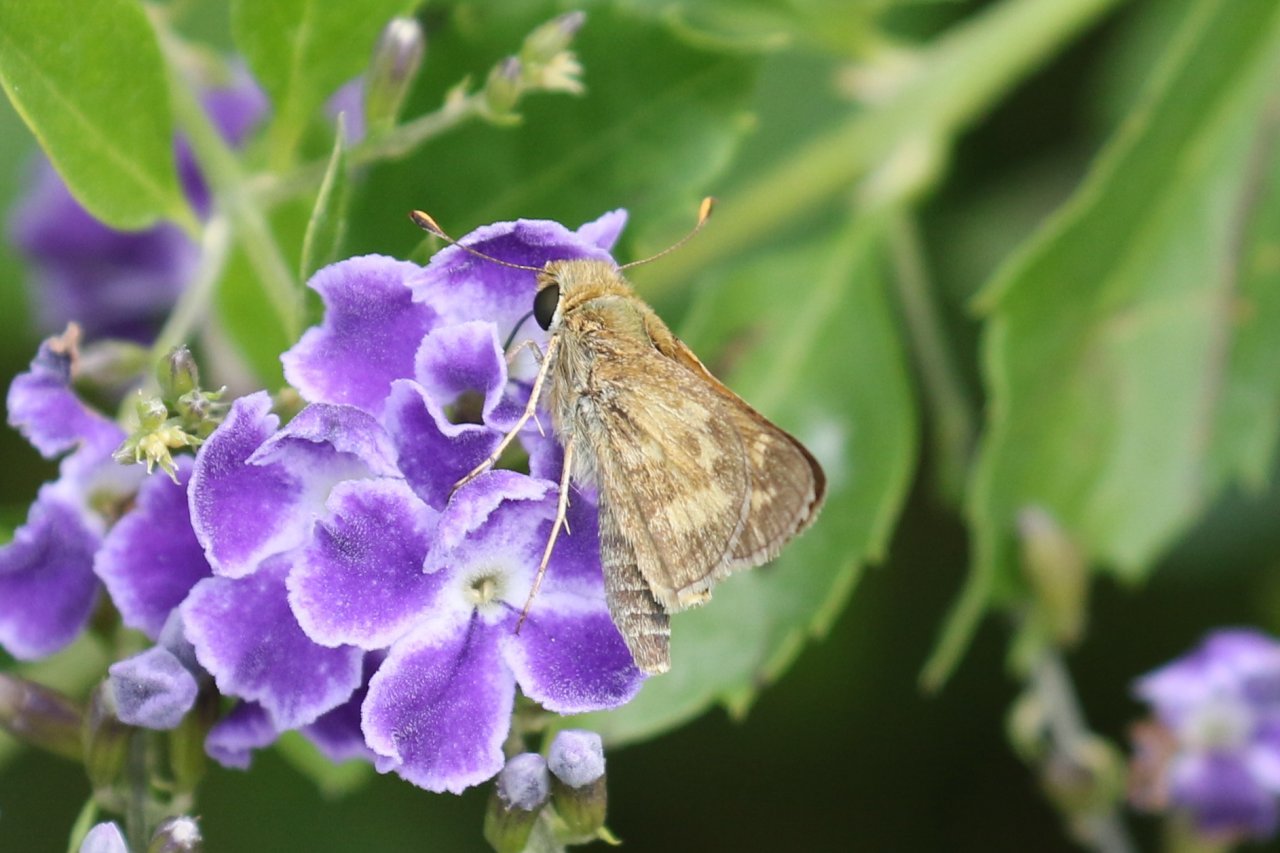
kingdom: Animalia
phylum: Arthropoda
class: Insecta
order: Lepidoptera
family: Hesperiidae
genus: Atalopedes
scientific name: Atalopedes campestris
